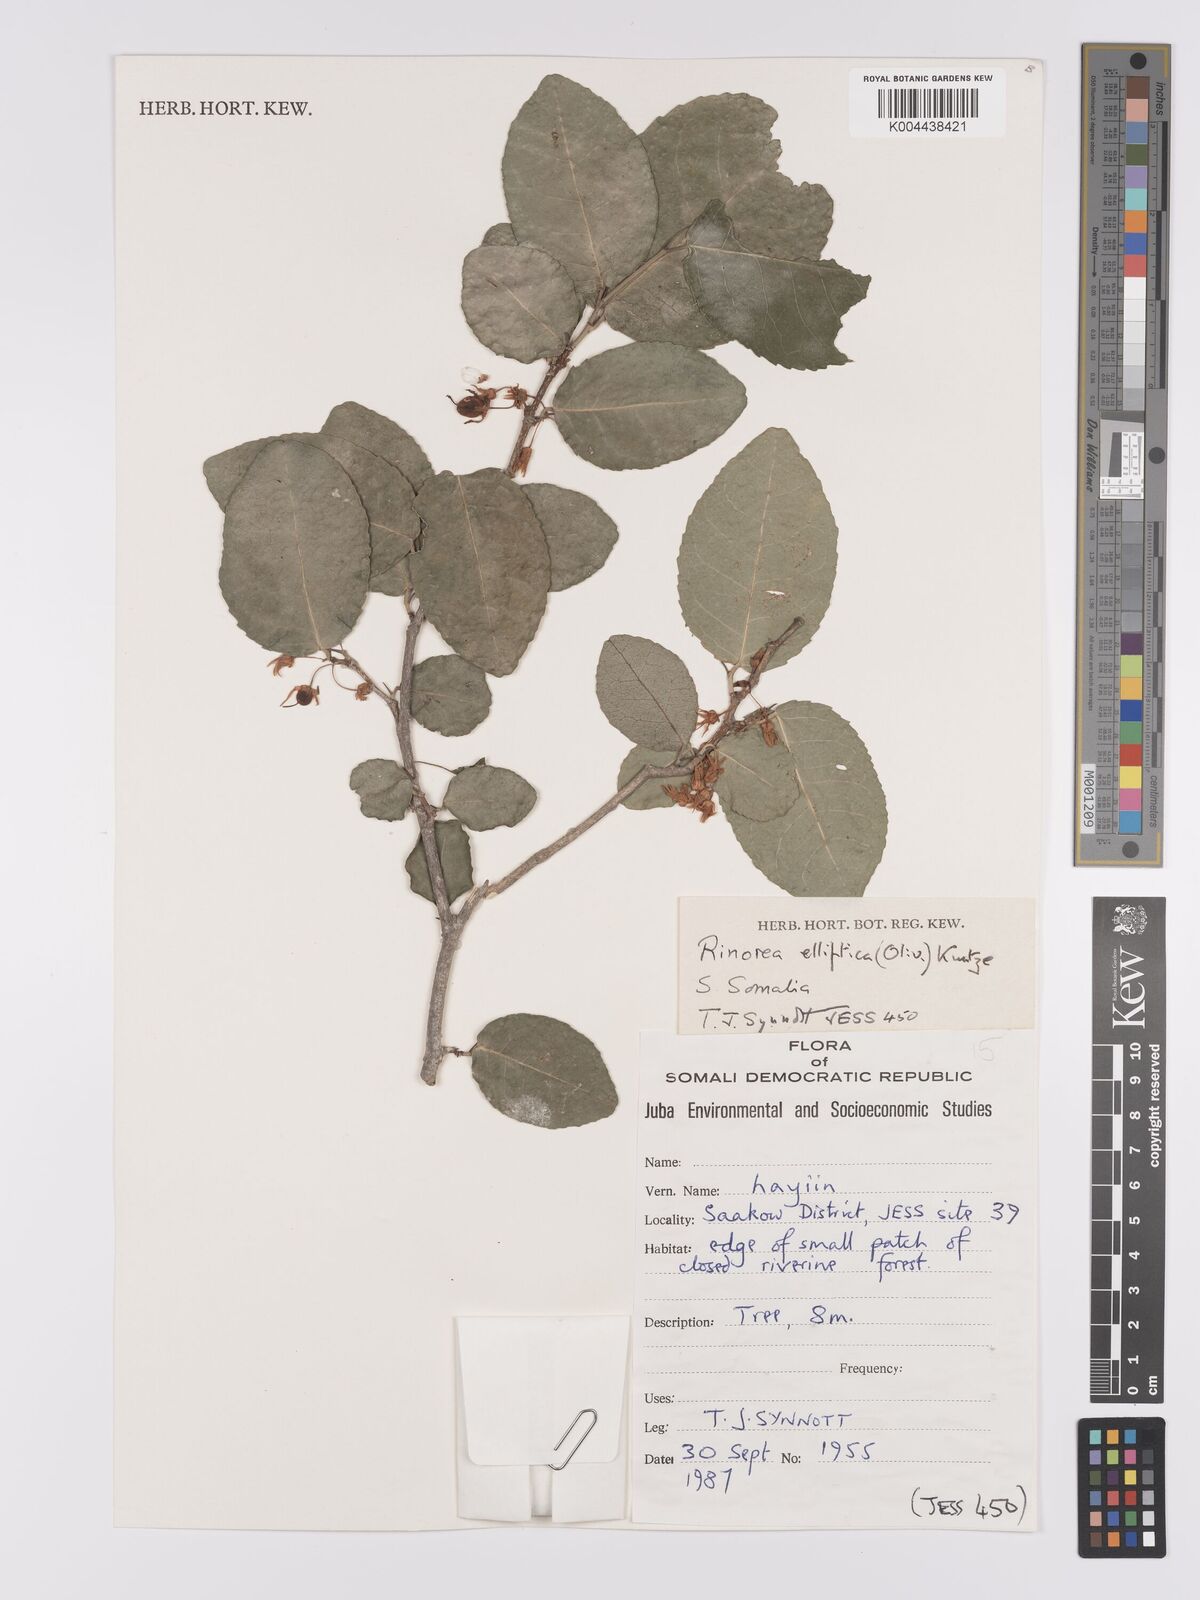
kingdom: Plantae
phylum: Tracheophyta
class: Magnoliopsida
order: Malpighiales
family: Violaceae
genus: Rinorea
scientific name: Rinorea elliptica
